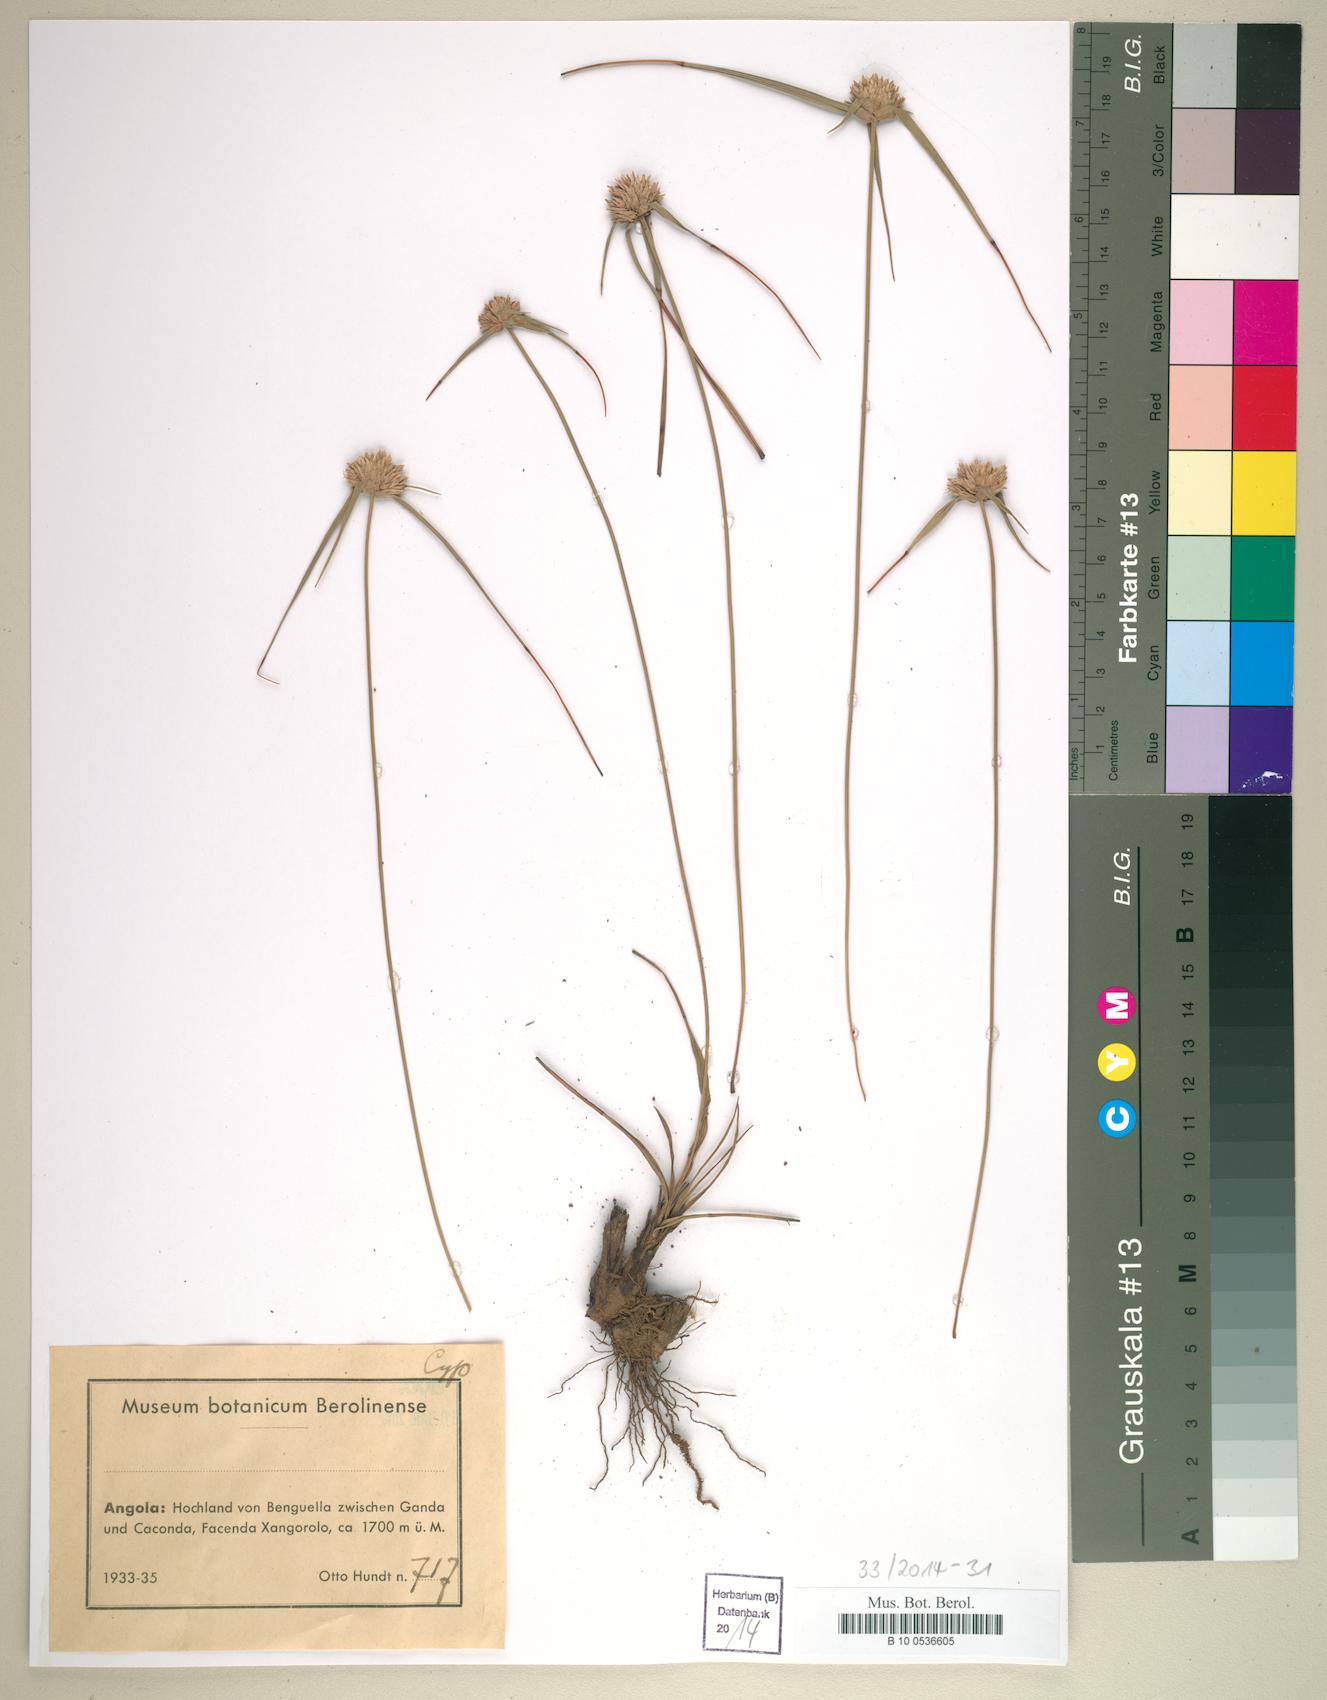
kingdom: Plantae
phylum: Tracheophyta
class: Liliopsida
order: Poales
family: Cyperaceae
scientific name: Cyperaceae
